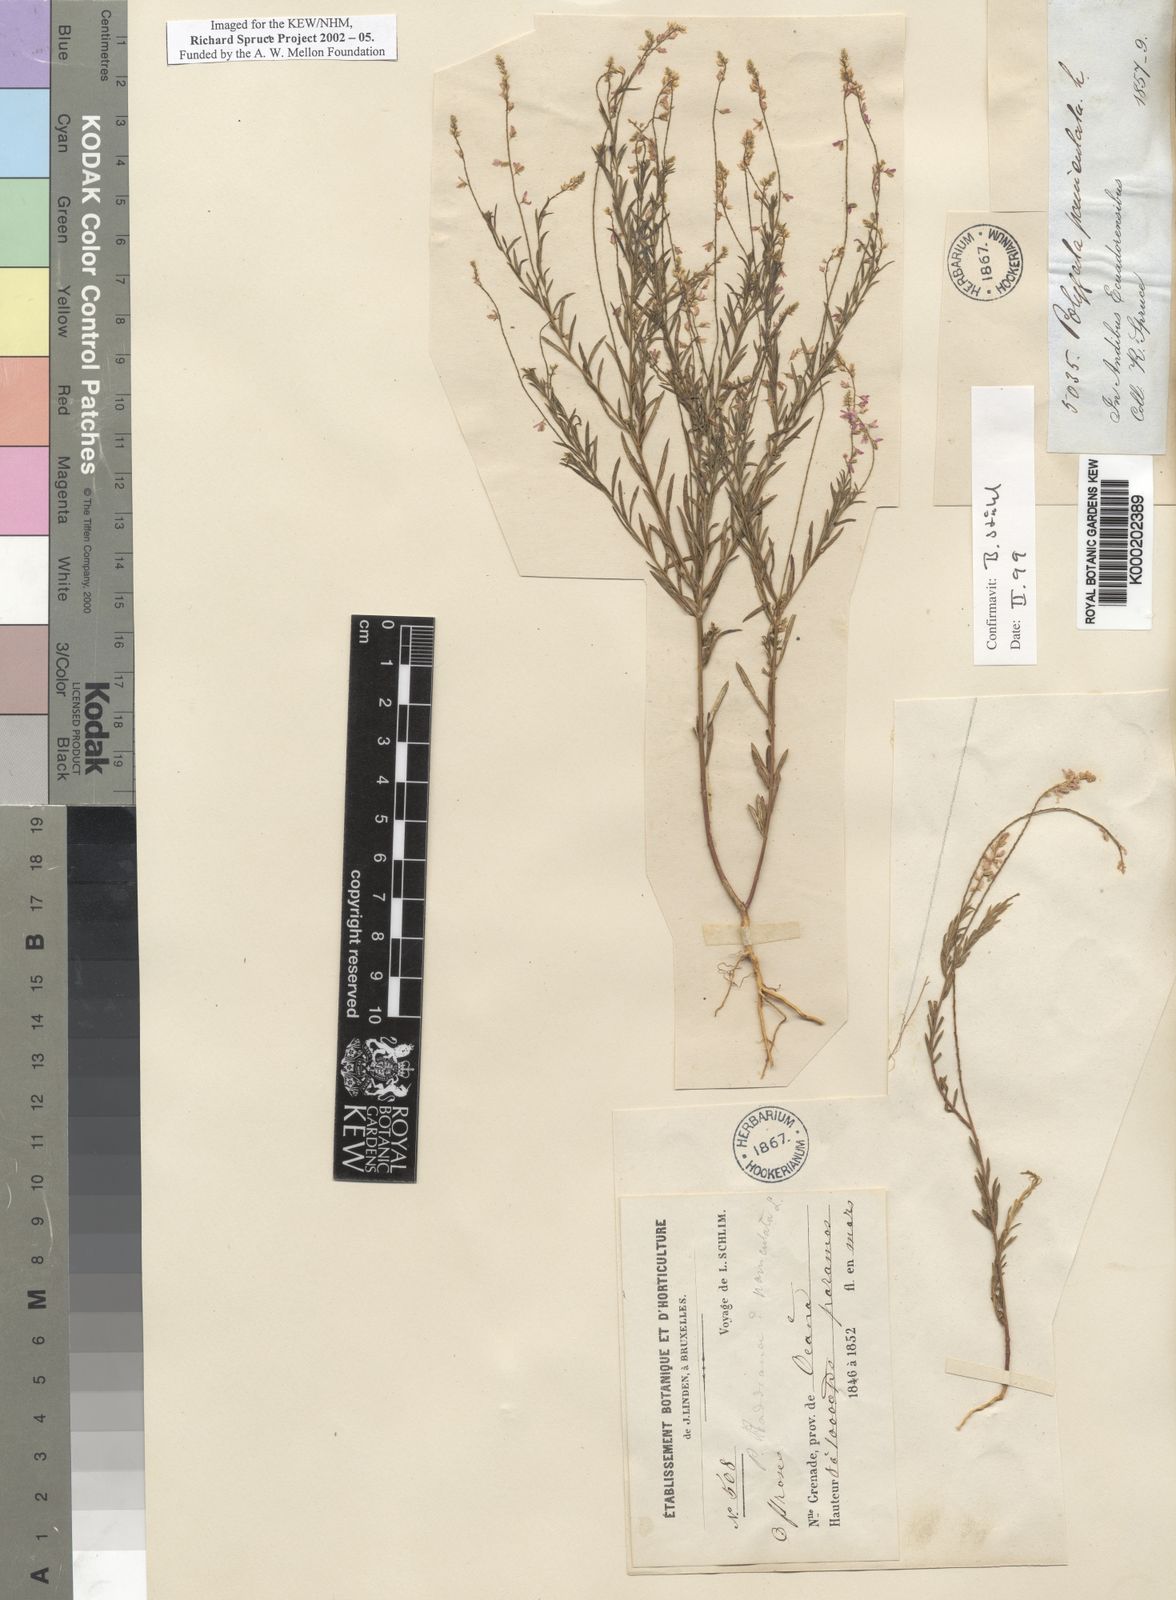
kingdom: Plantae
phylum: Tracheophyta
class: Magnoliopsida
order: Fabales
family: Polygalaceae
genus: Polygala
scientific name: Polygala paniculata
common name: Orosne
